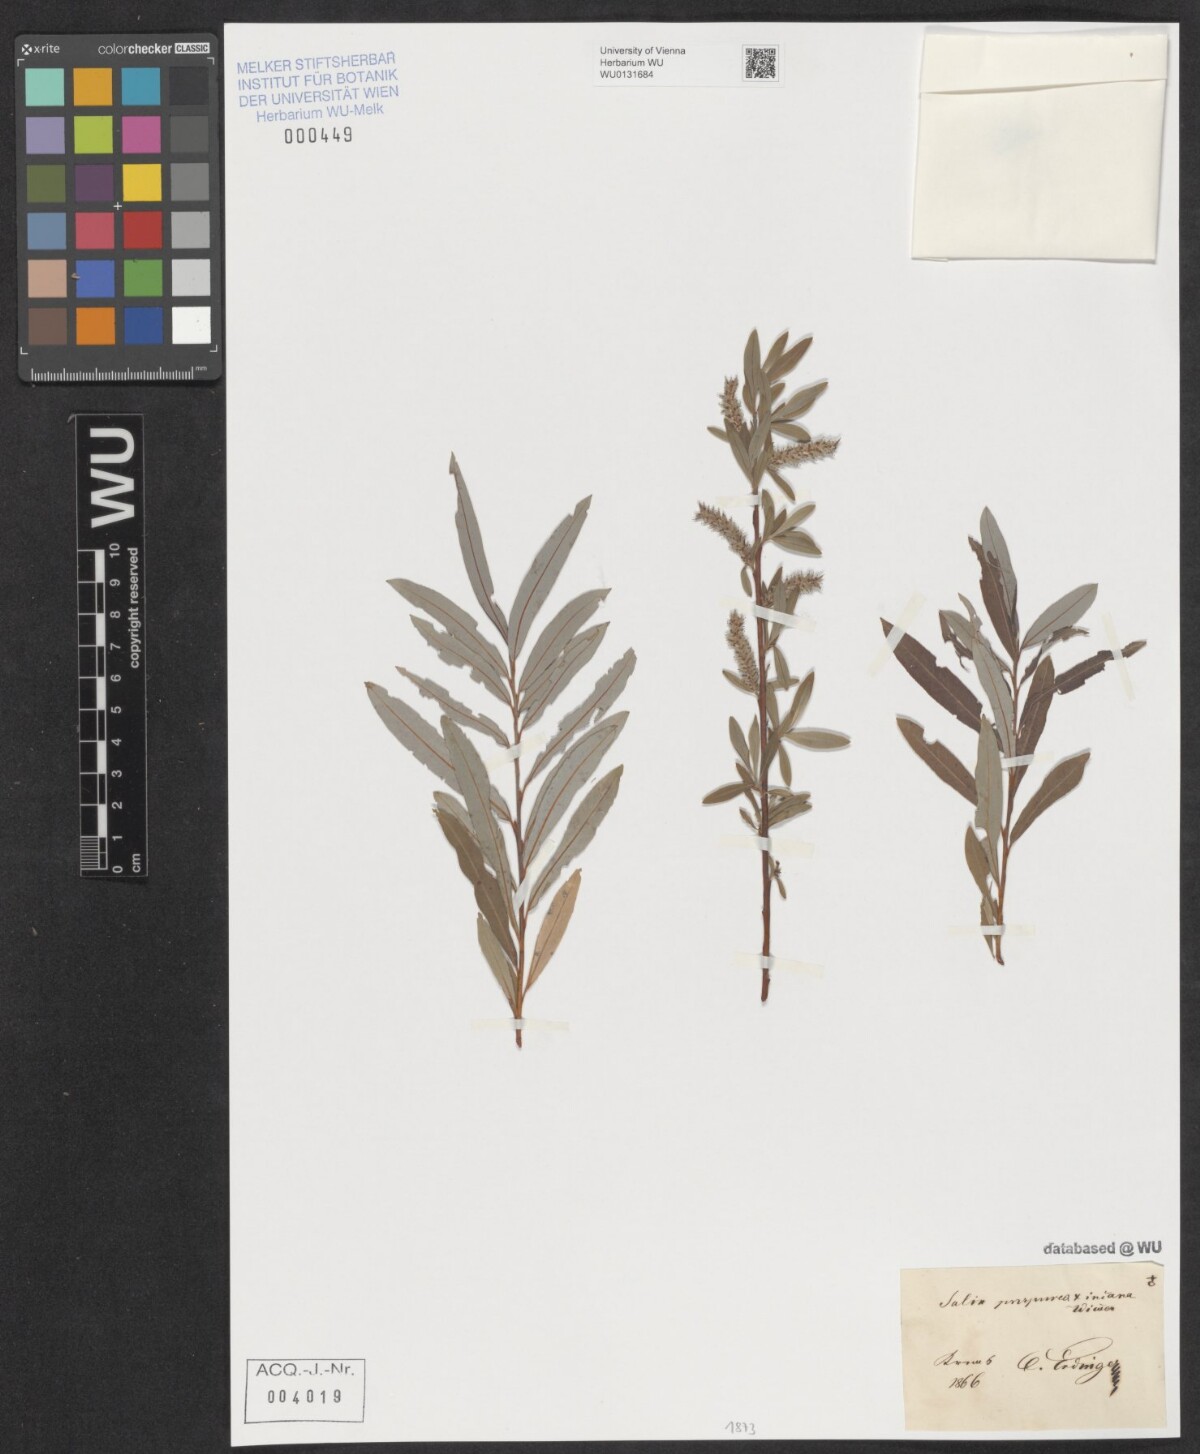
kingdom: Plantae
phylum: Tracheophyta
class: Magnoliopsida
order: Malpighiales
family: Salicaceae
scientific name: Salicaceae
